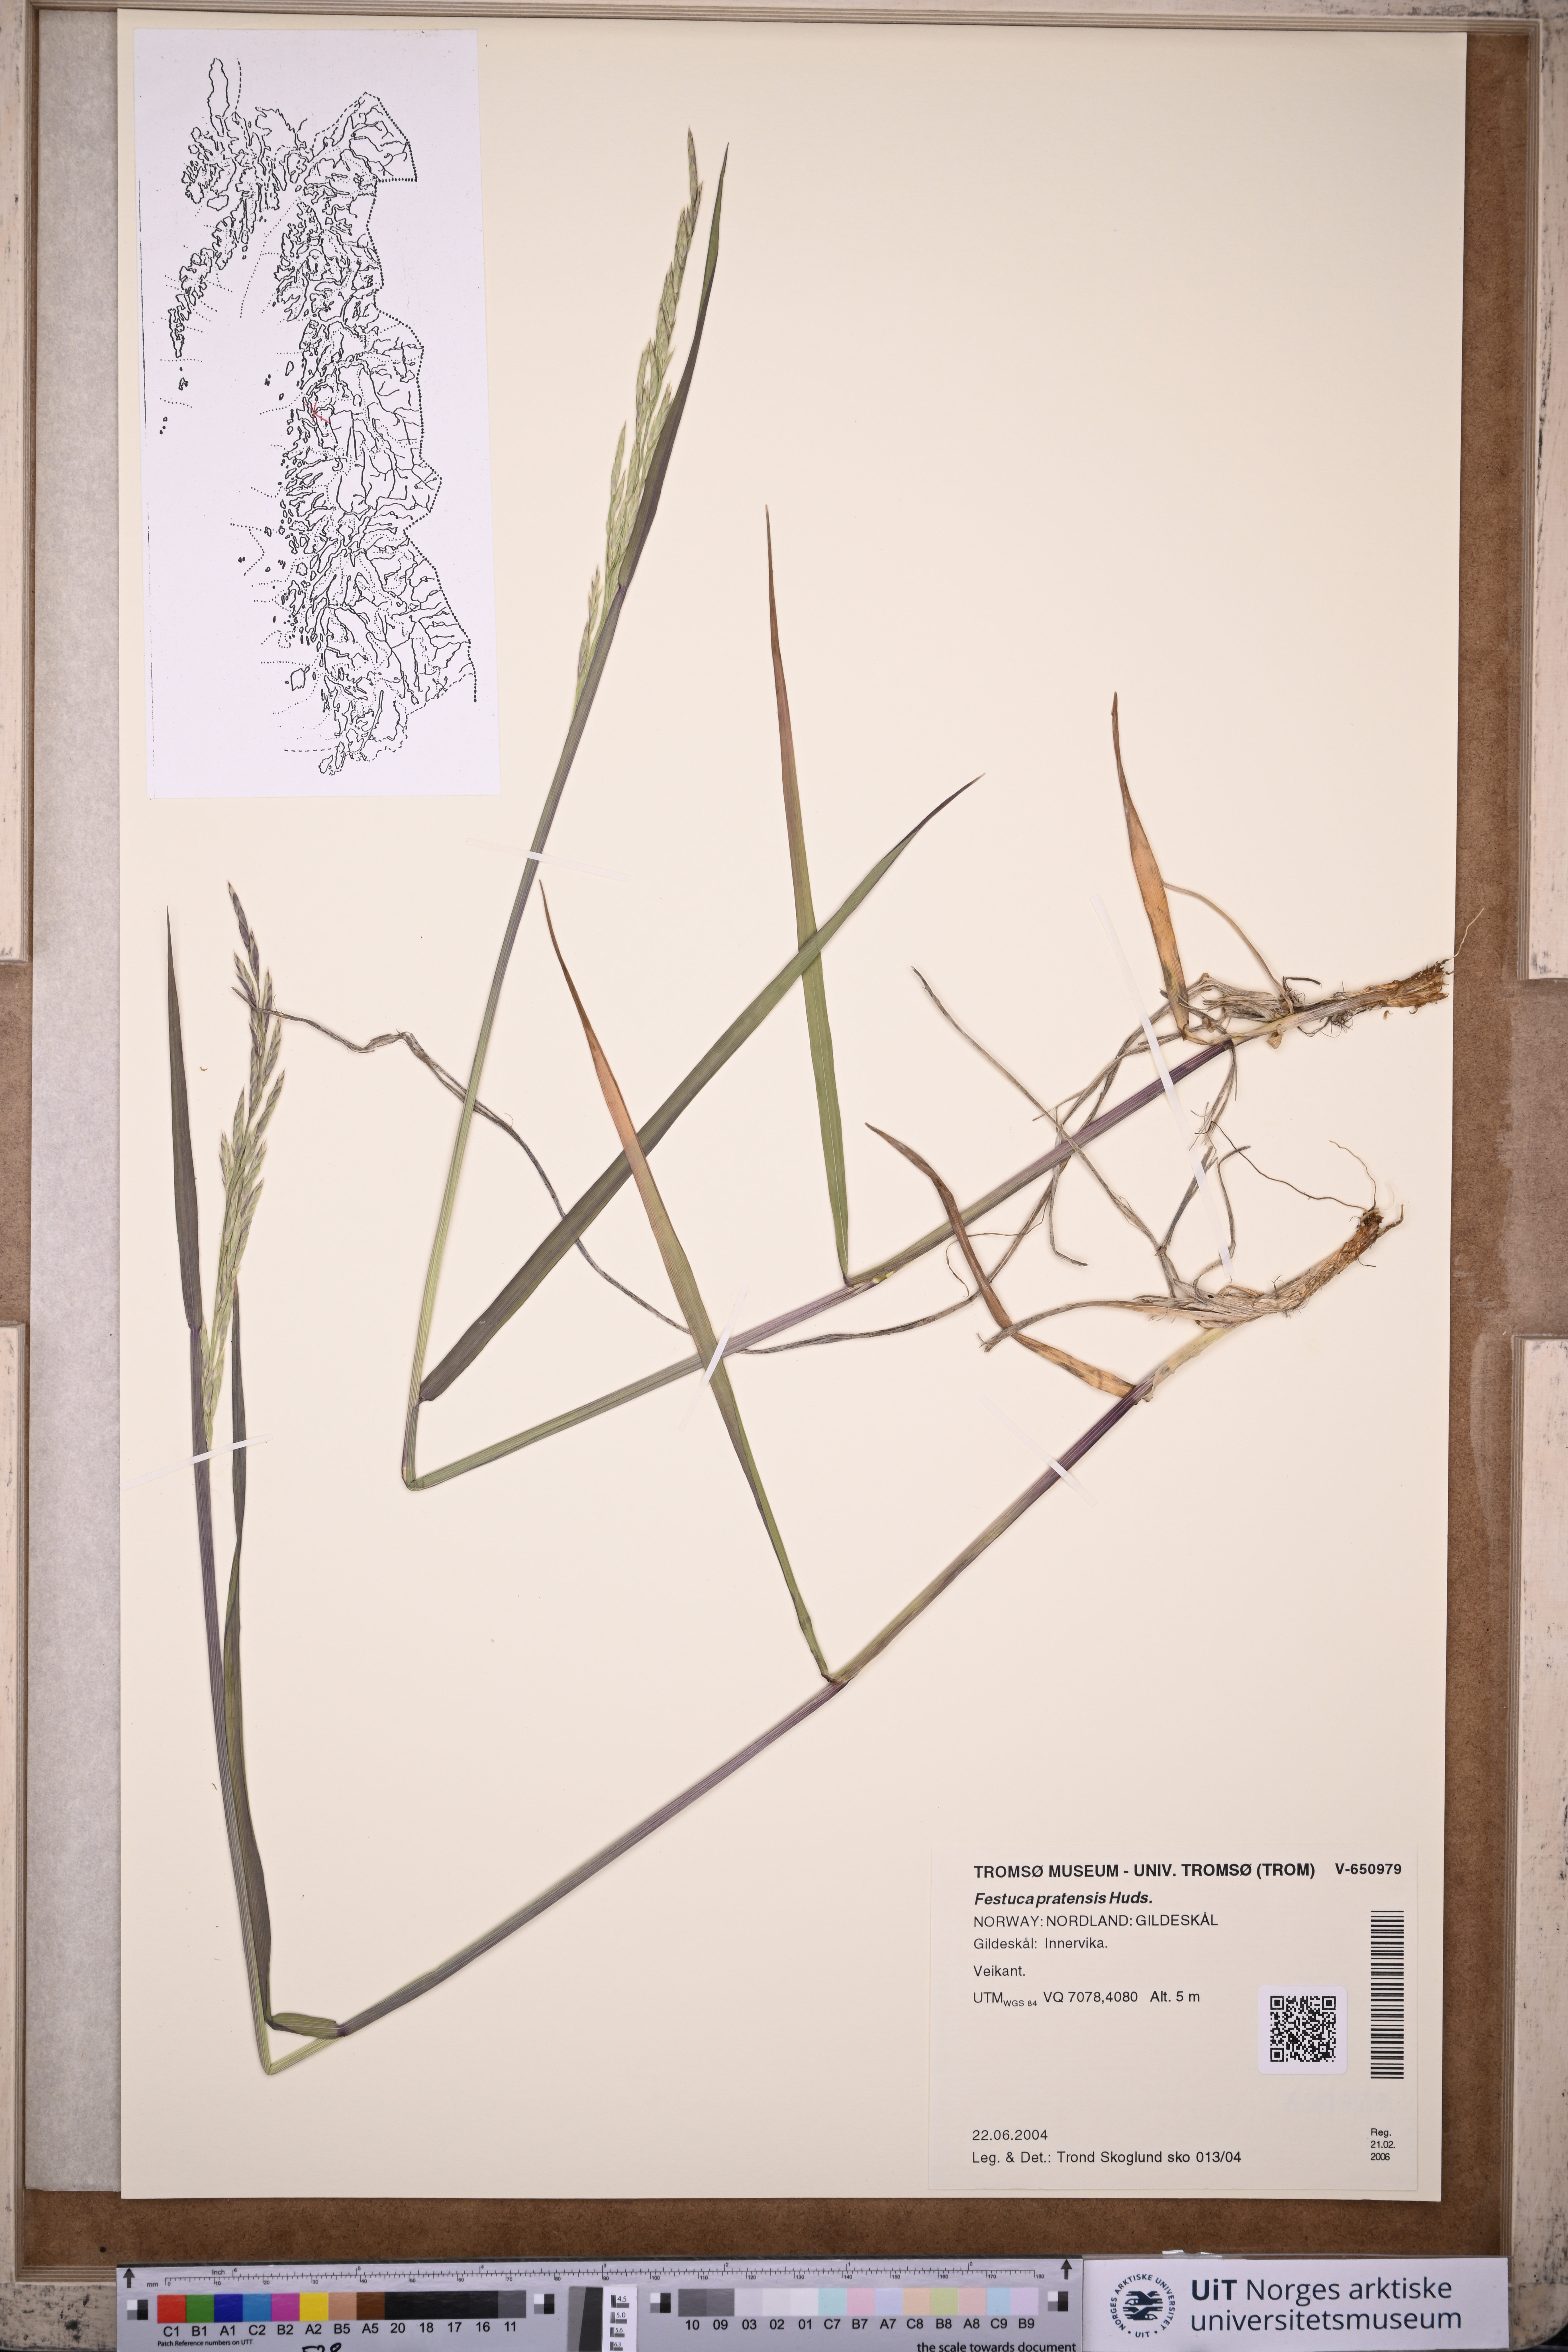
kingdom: Plantae
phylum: Tracheophyta
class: Liliopsida
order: Poales
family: Poaceae
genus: Lolium
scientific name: Lolium pratense
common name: Dover grass
